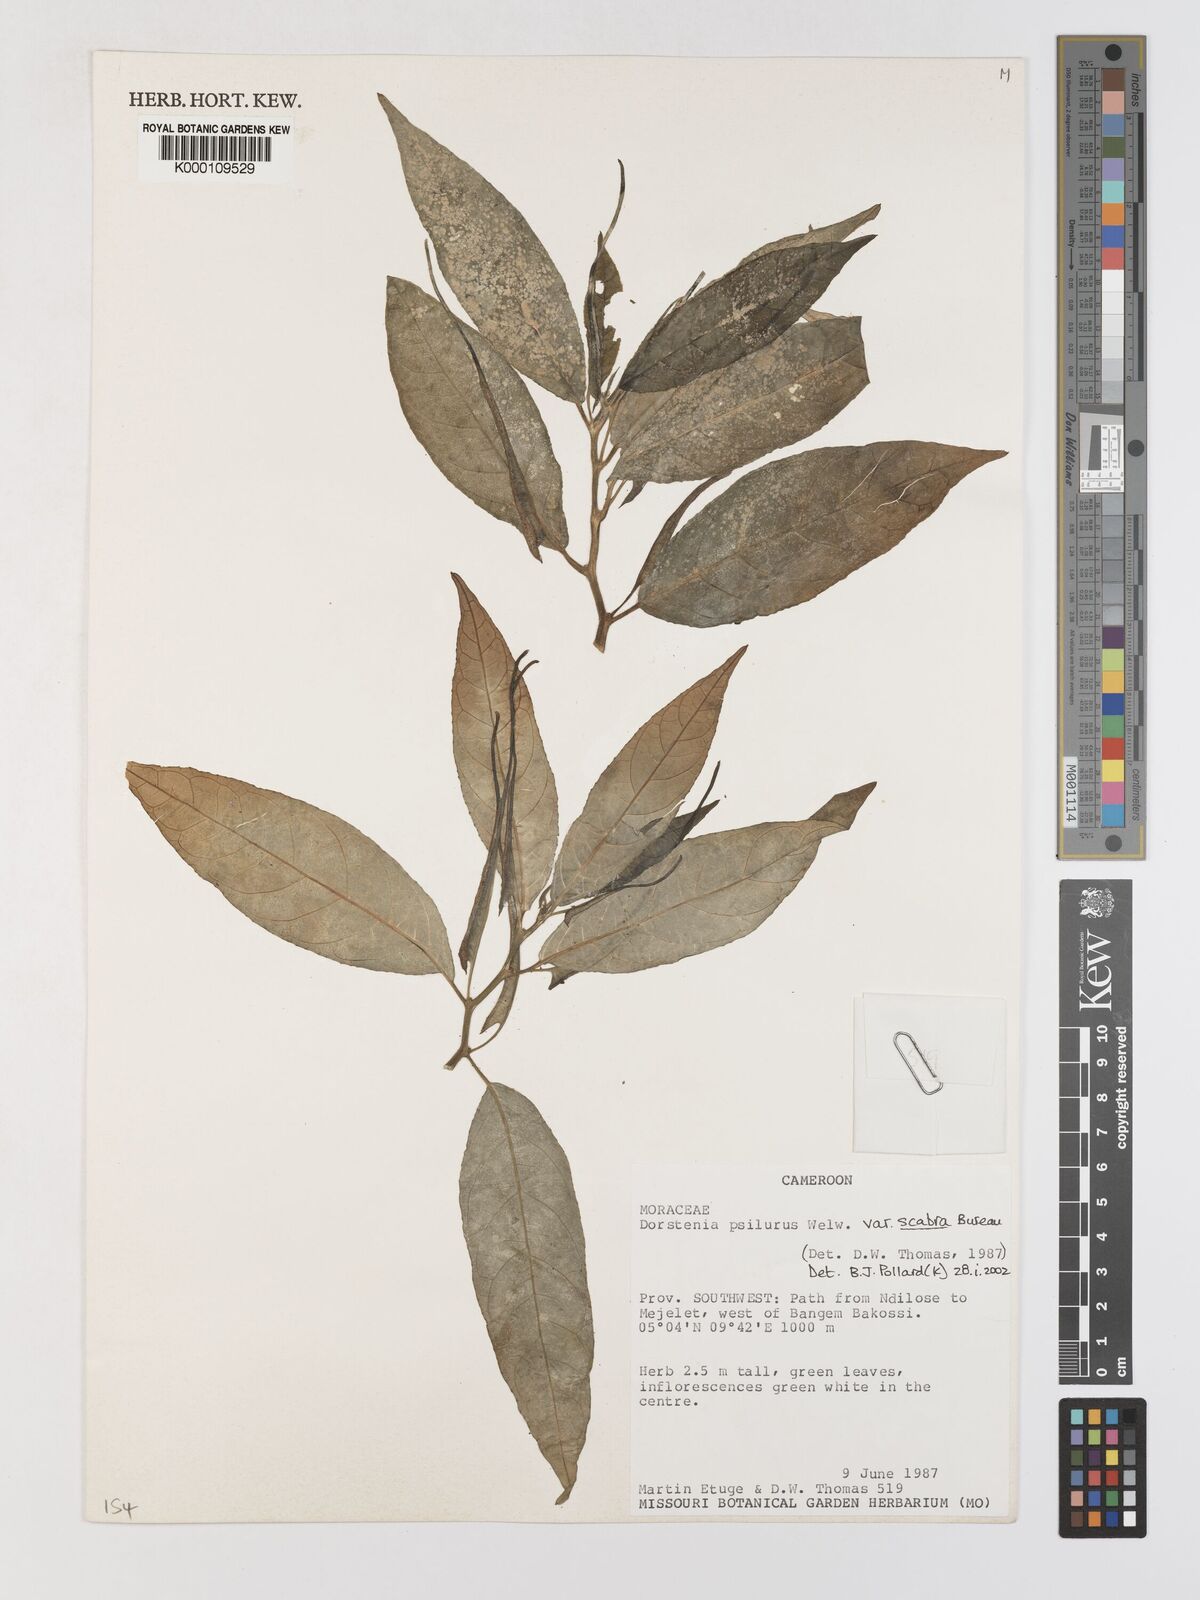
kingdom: Plantae
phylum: Tracheophyta
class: Magnoliopsida
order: Rosales
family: Moraceae
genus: Dorstenia
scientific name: Dorstenia psilurus
